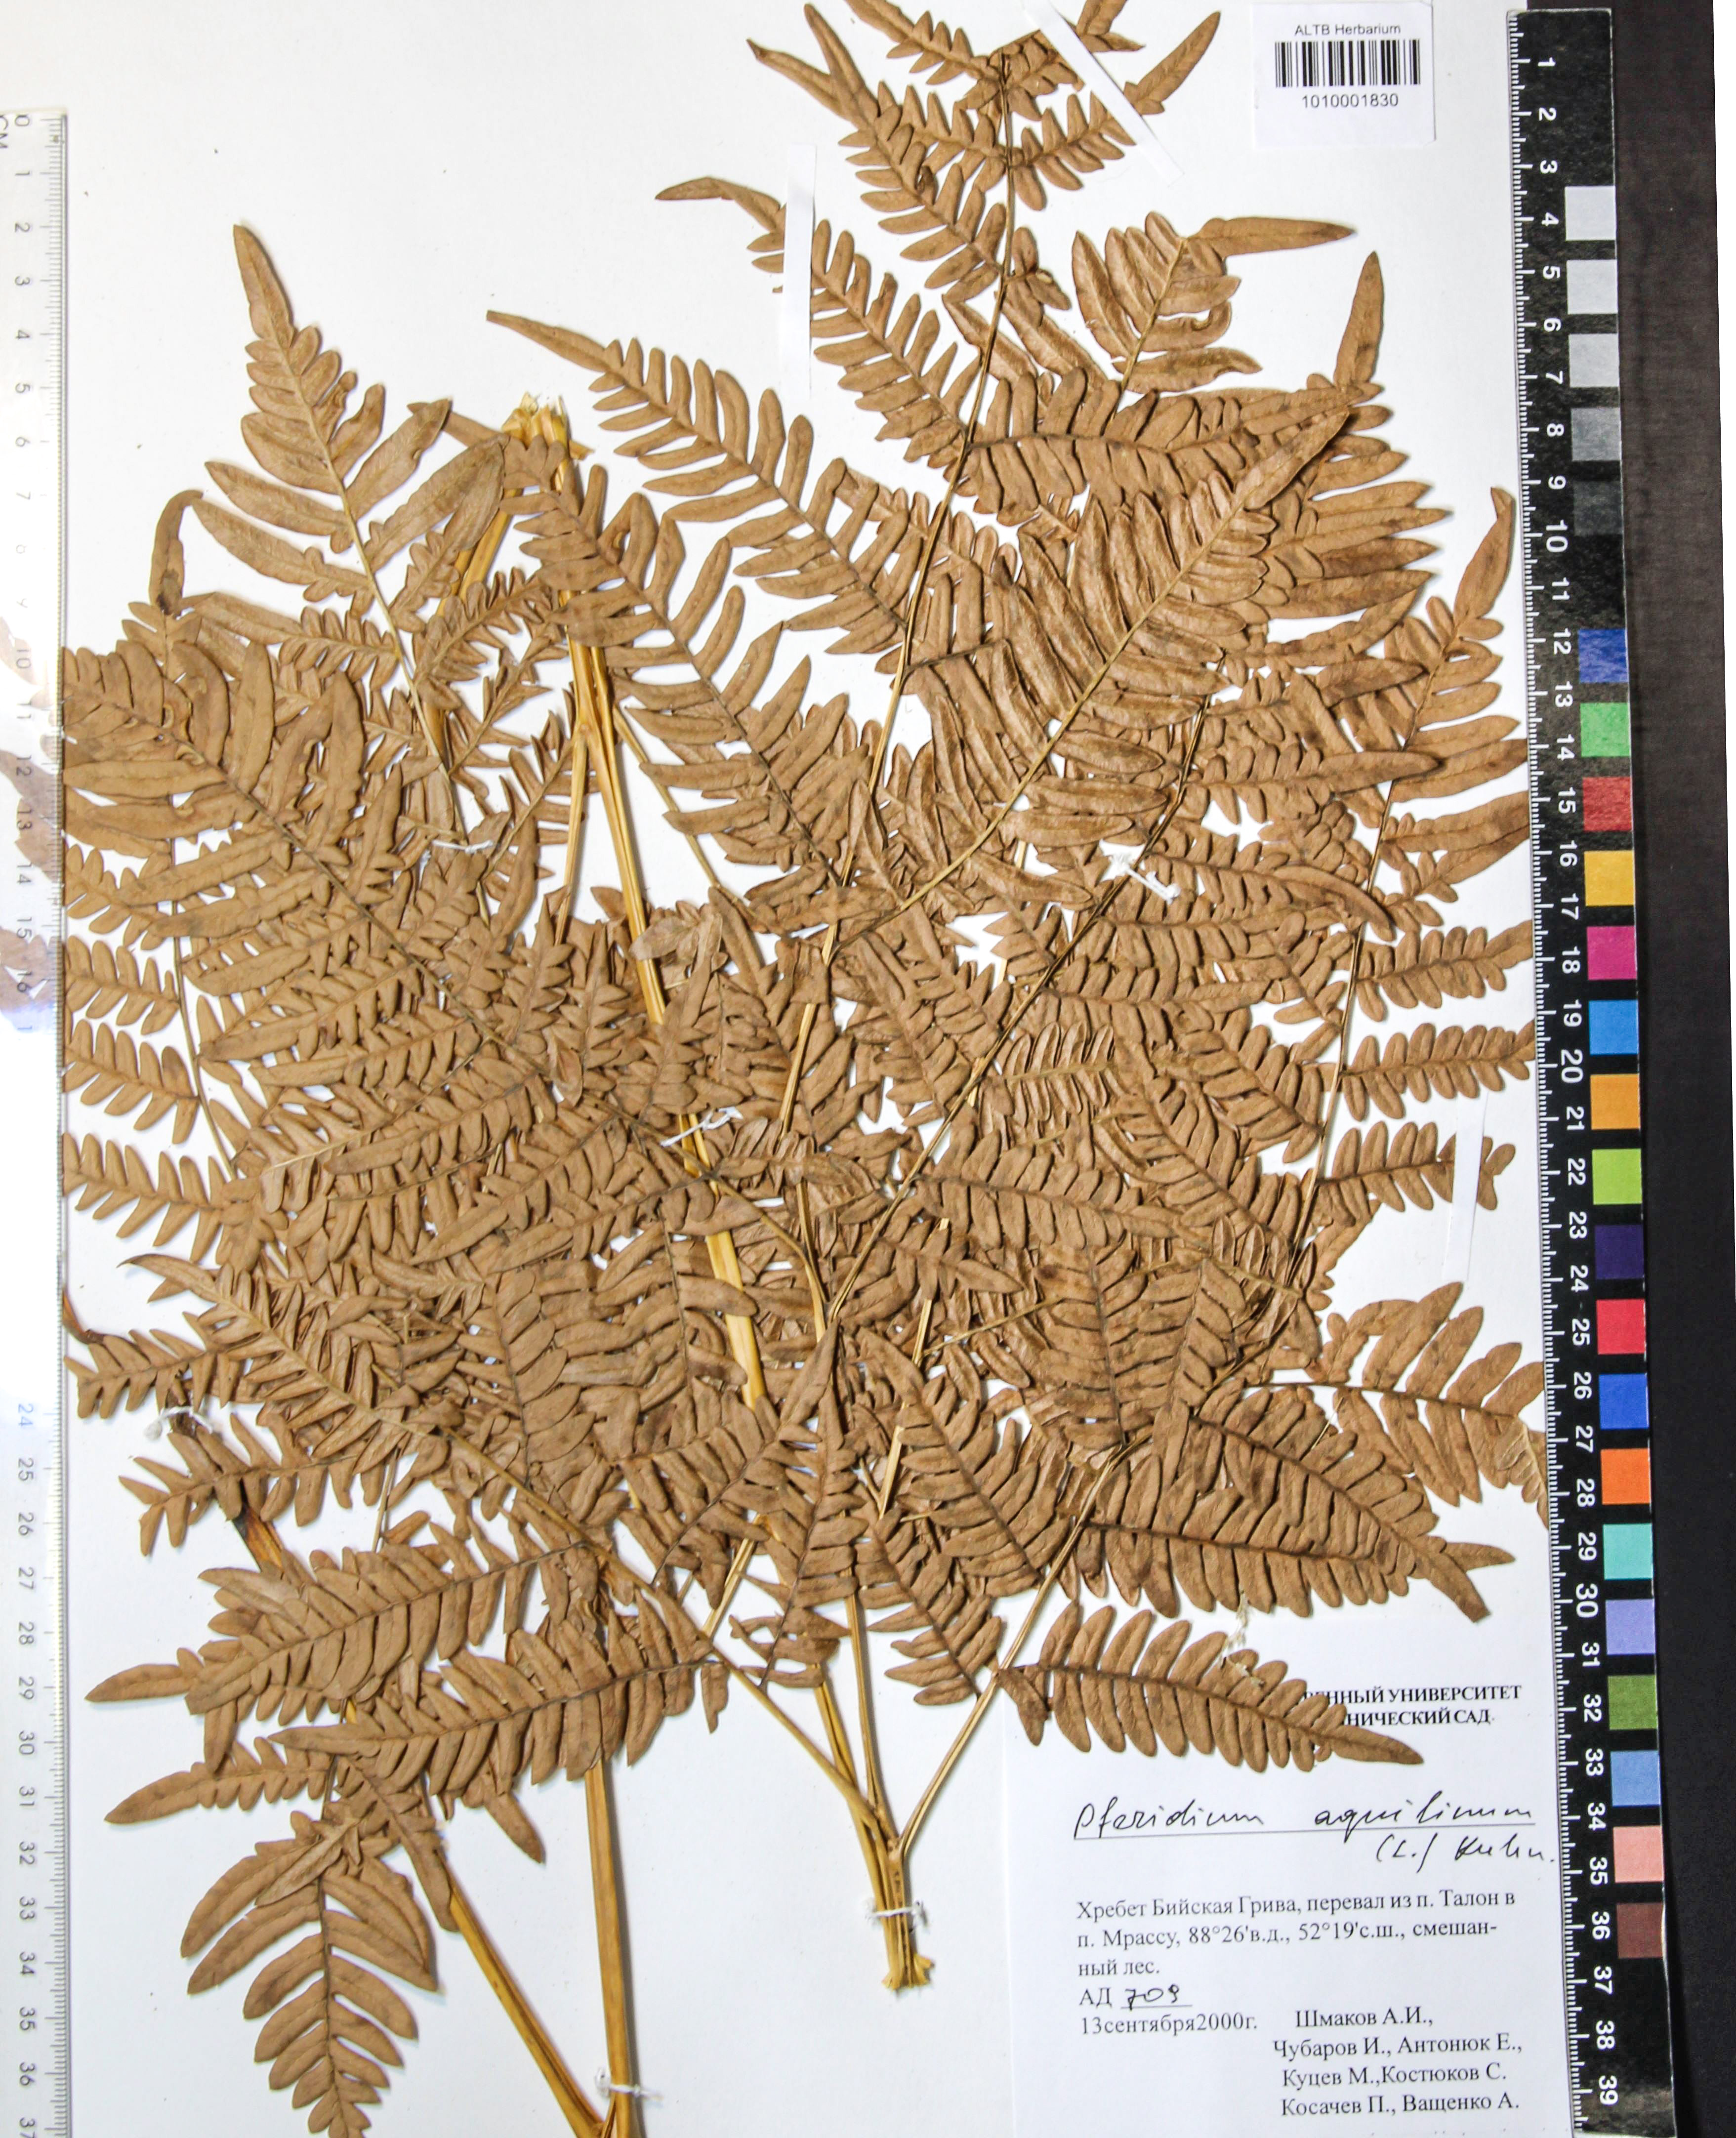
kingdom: Plantae
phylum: Tracheophyta
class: Polypodiopsida
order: Polypodiales
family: Dennstaedtiaceae
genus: Pteridium
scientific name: Pteridium aquilinum
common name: Bracken
